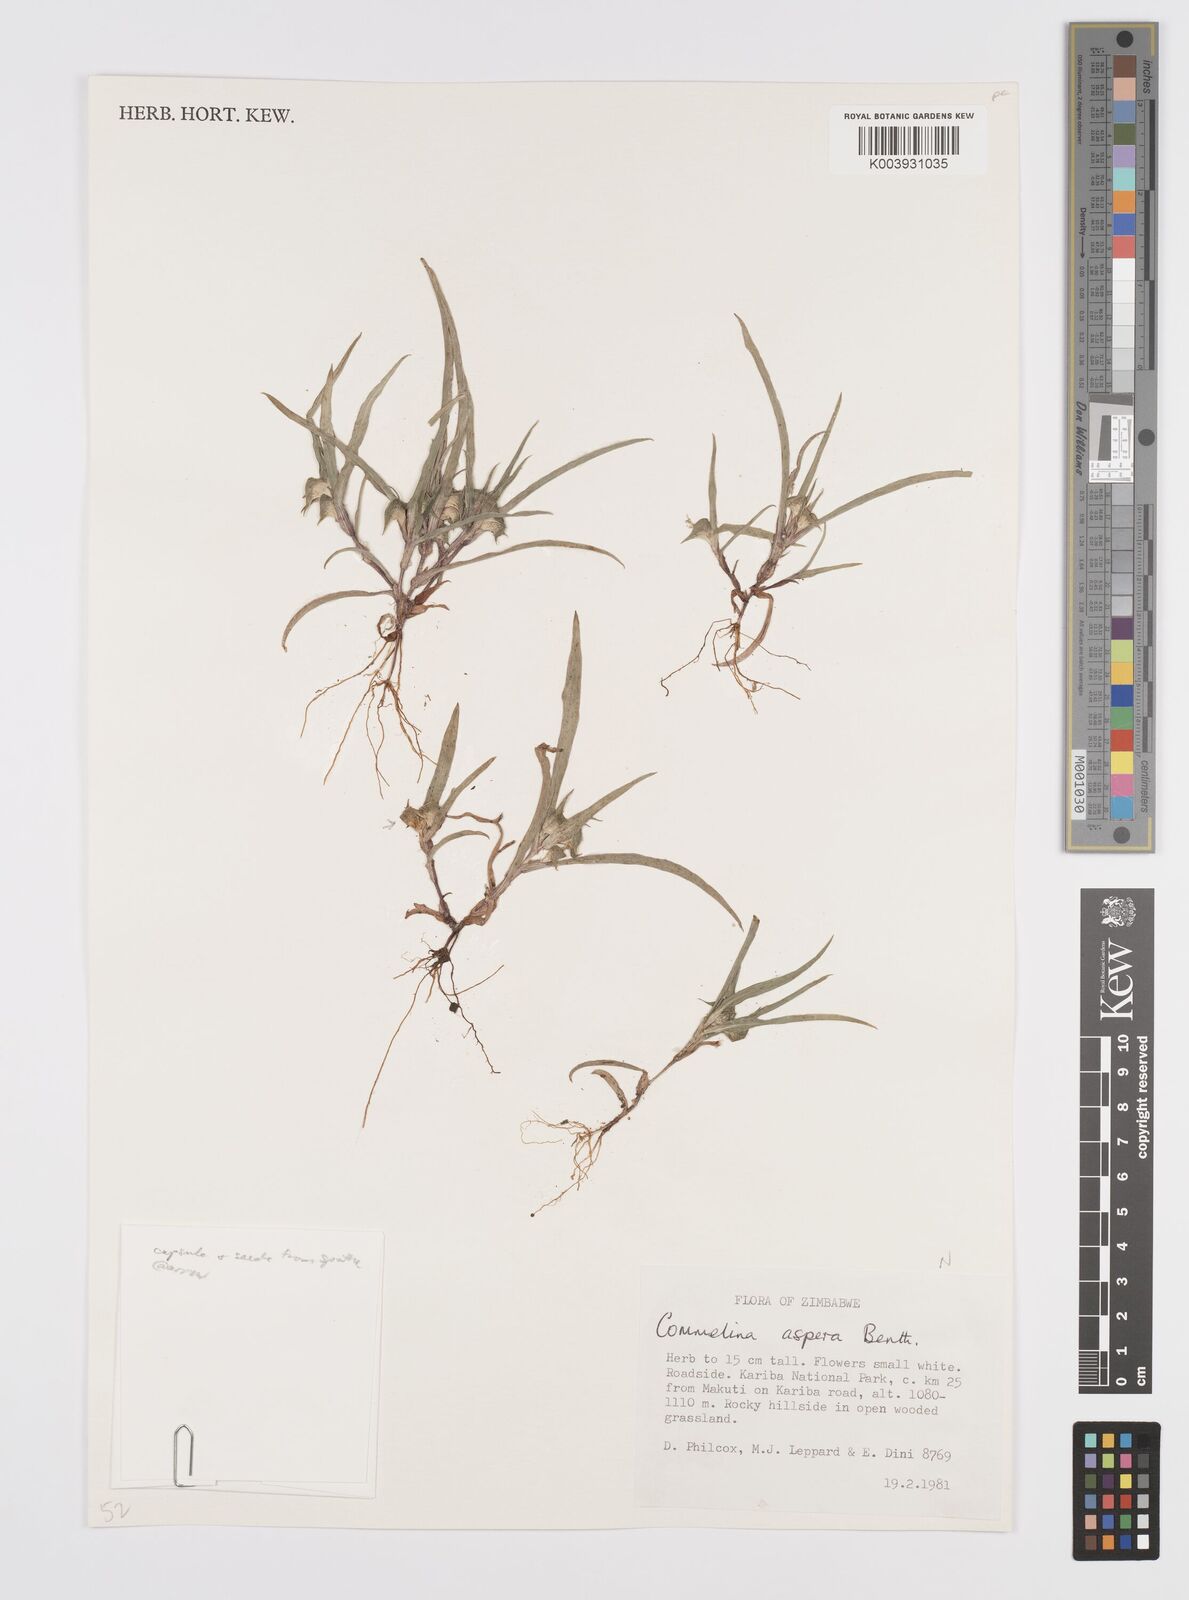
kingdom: Plantae
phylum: Tracheophyta
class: Liliopsida
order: Commelinales
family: Commelinaceae
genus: Commelina
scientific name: Commelina aspera
